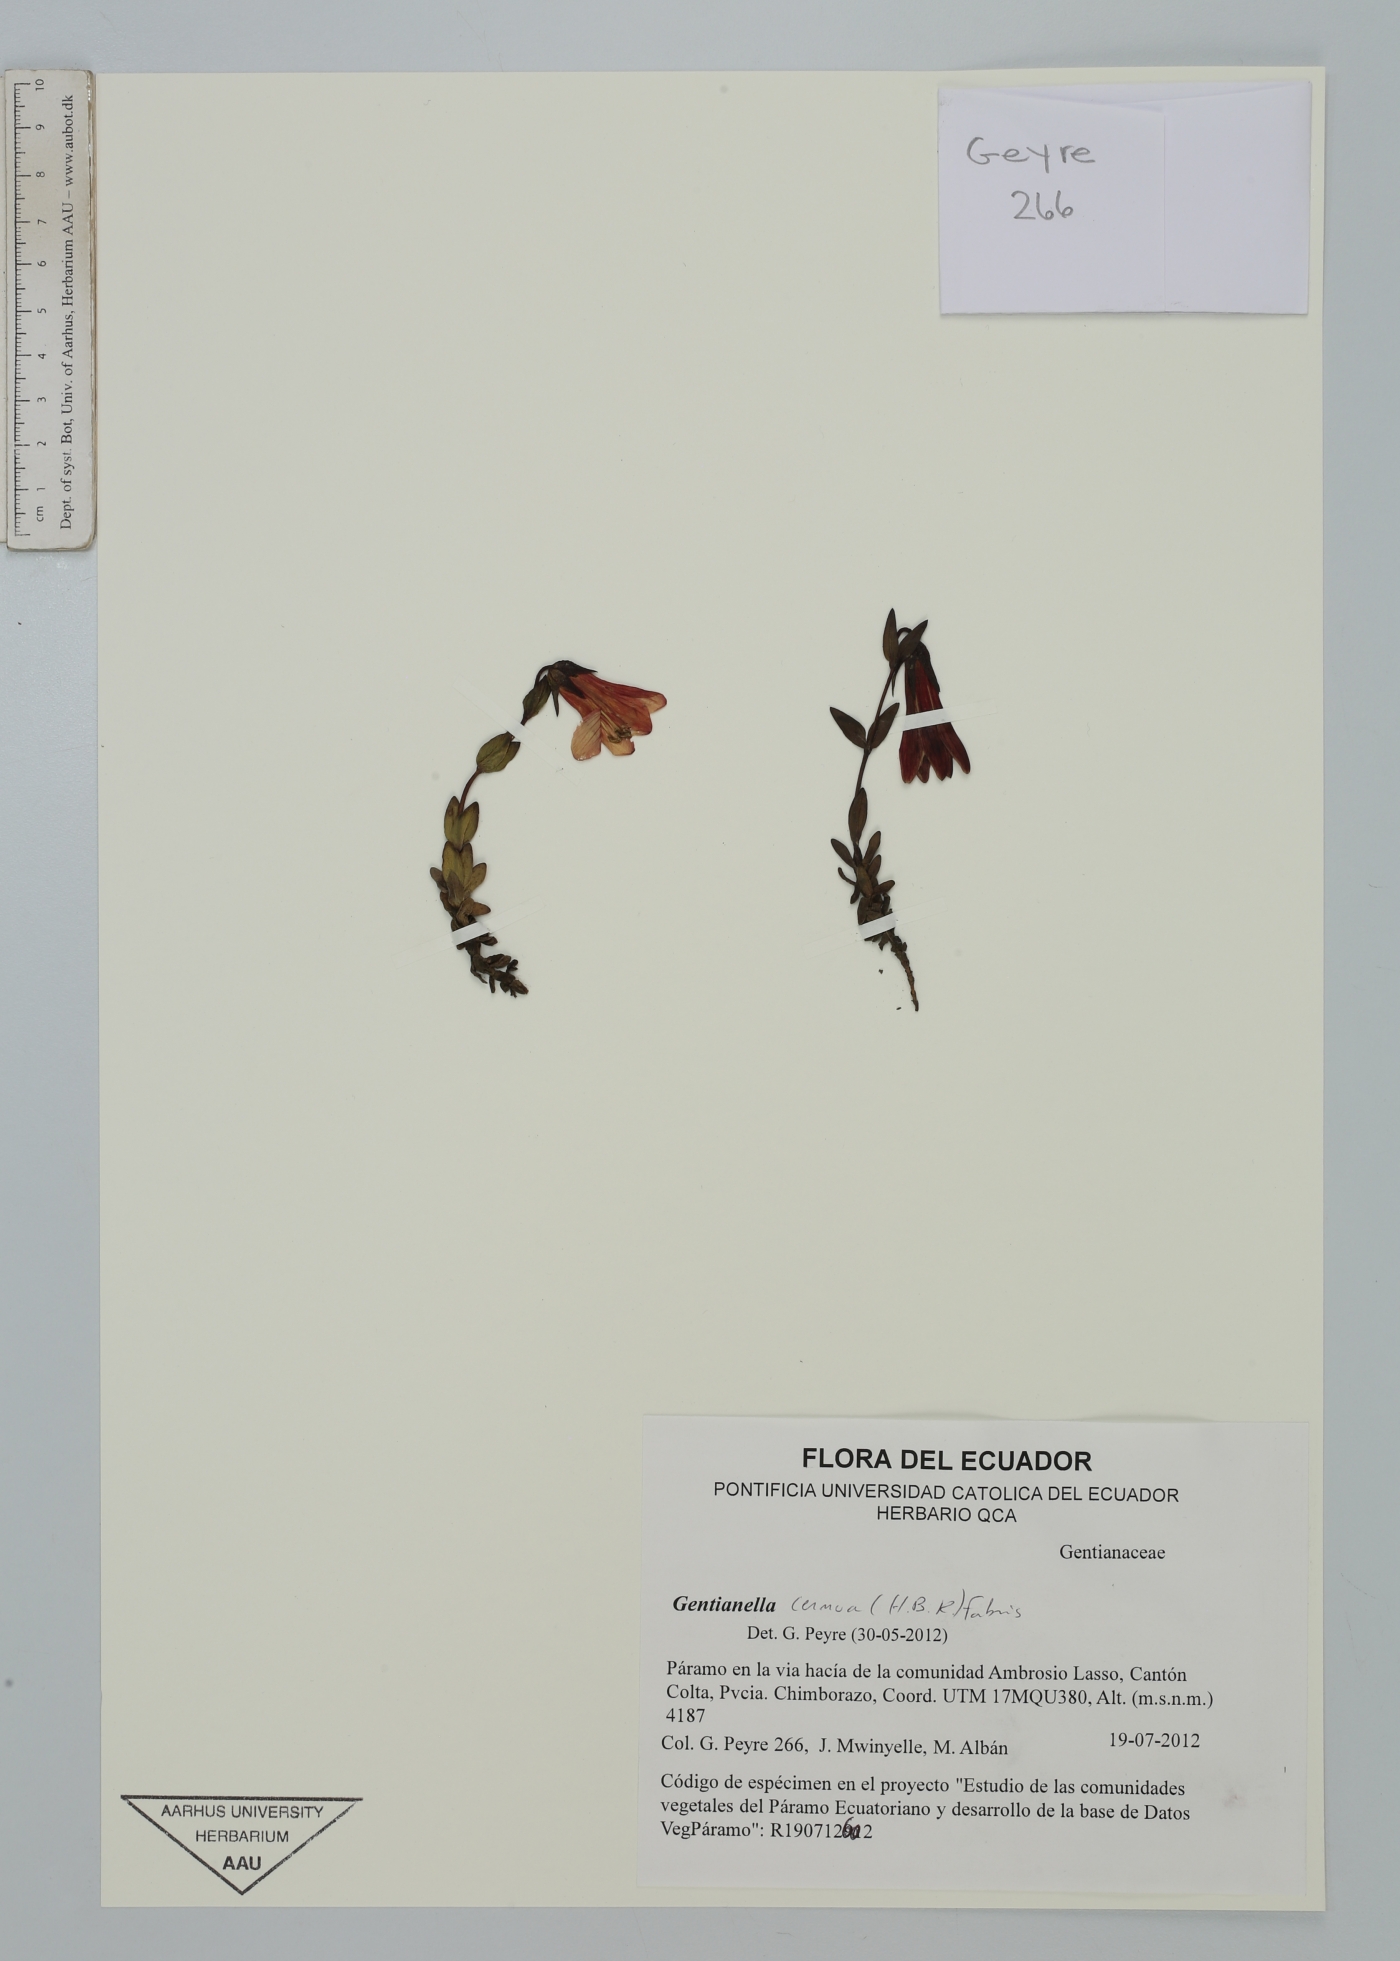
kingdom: Plantae
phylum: Tracheophyta
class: Magnoliopsida
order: Gentianales
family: Gentianaceae
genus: Gentianella
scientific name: Gentianella cernua
